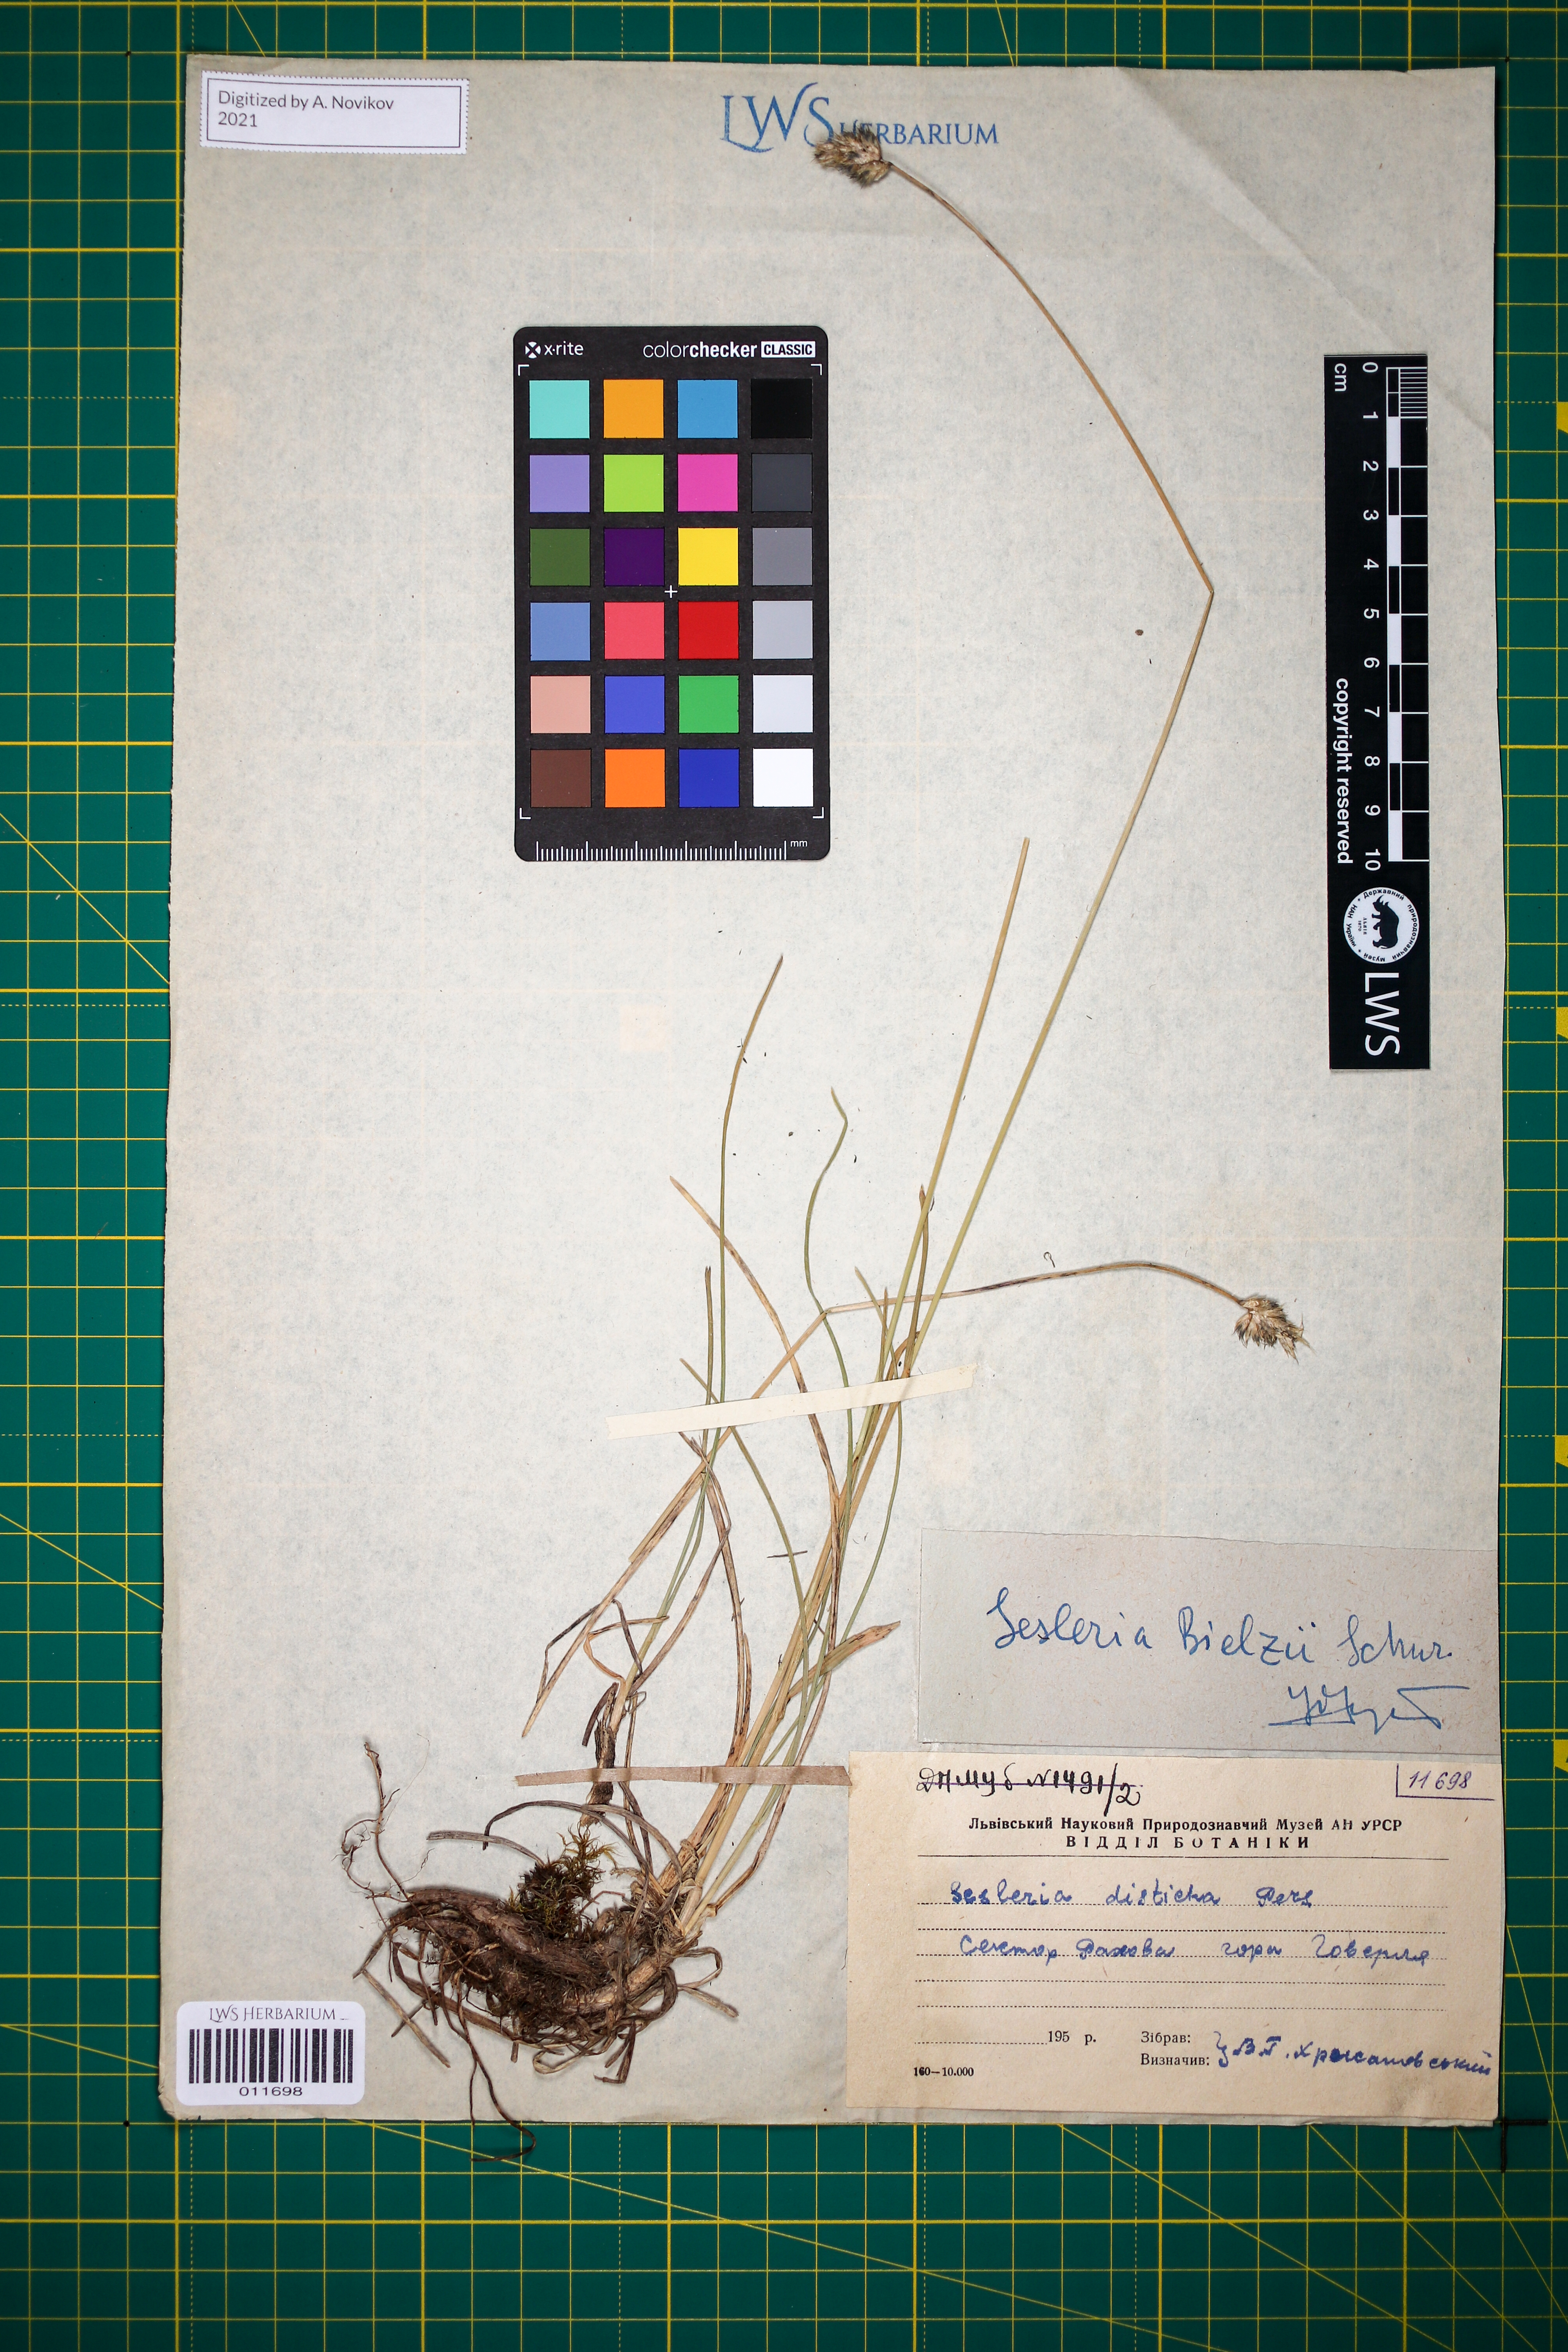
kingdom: Plantae
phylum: Tracheophyta
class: Liliopsida
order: Poales
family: Poaceae
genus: Sesleria
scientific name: Sesleria bielzii
